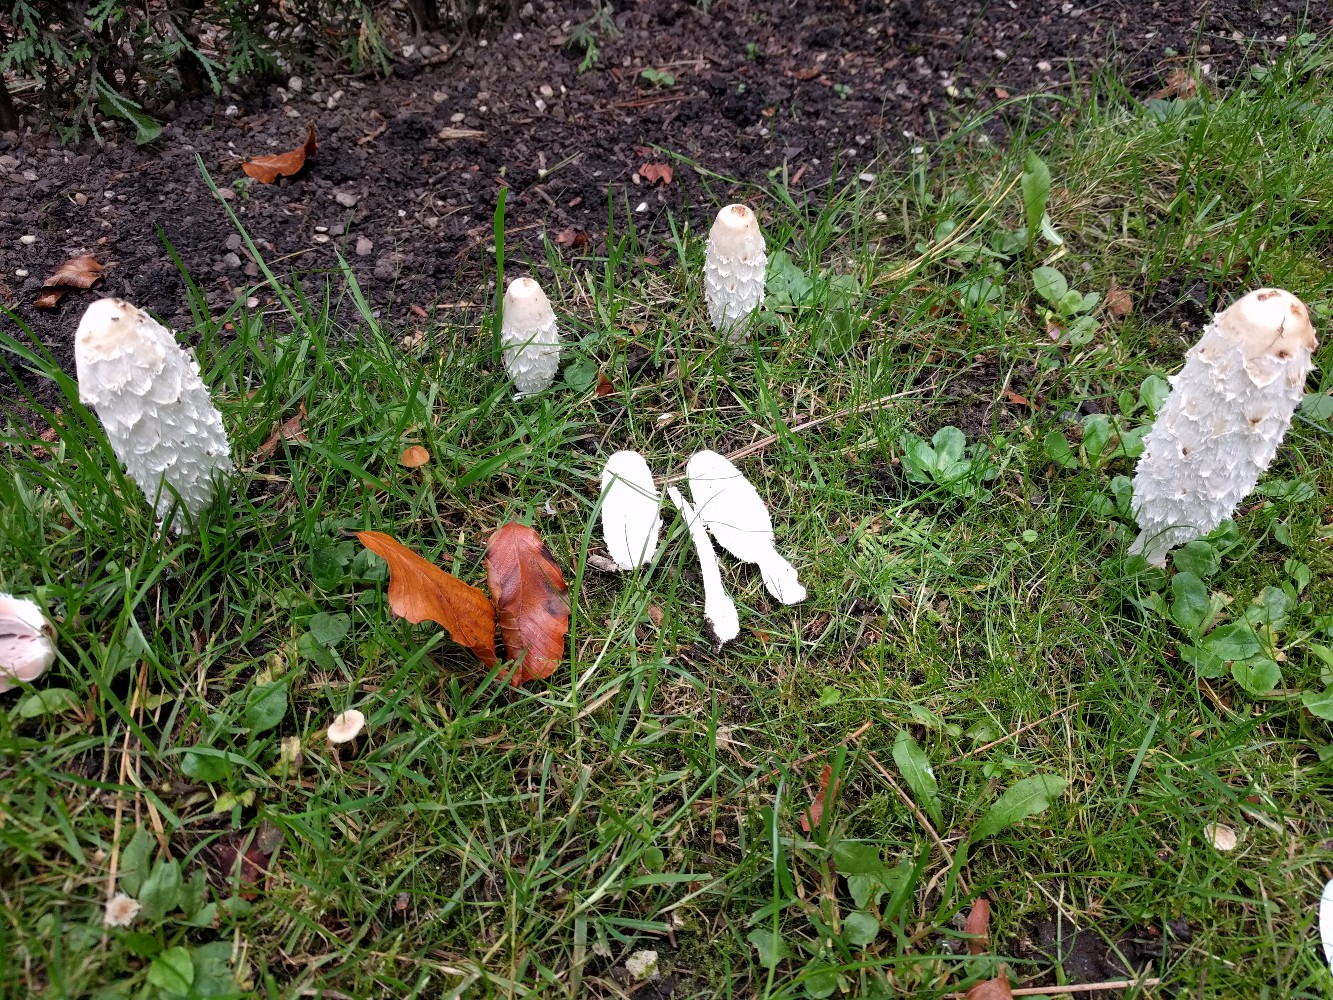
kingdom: Fungi
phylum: Basidiomycota
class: Agaricomycetes
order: Agaricales
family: Agaricaceae
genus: Coprinus
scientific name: Coprinus comatus
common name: stor parykhat
